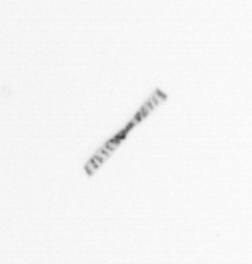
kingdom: Chromista
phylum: Ochrophyta
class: Bacillariophyceae
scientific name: Bacillariophyceae
